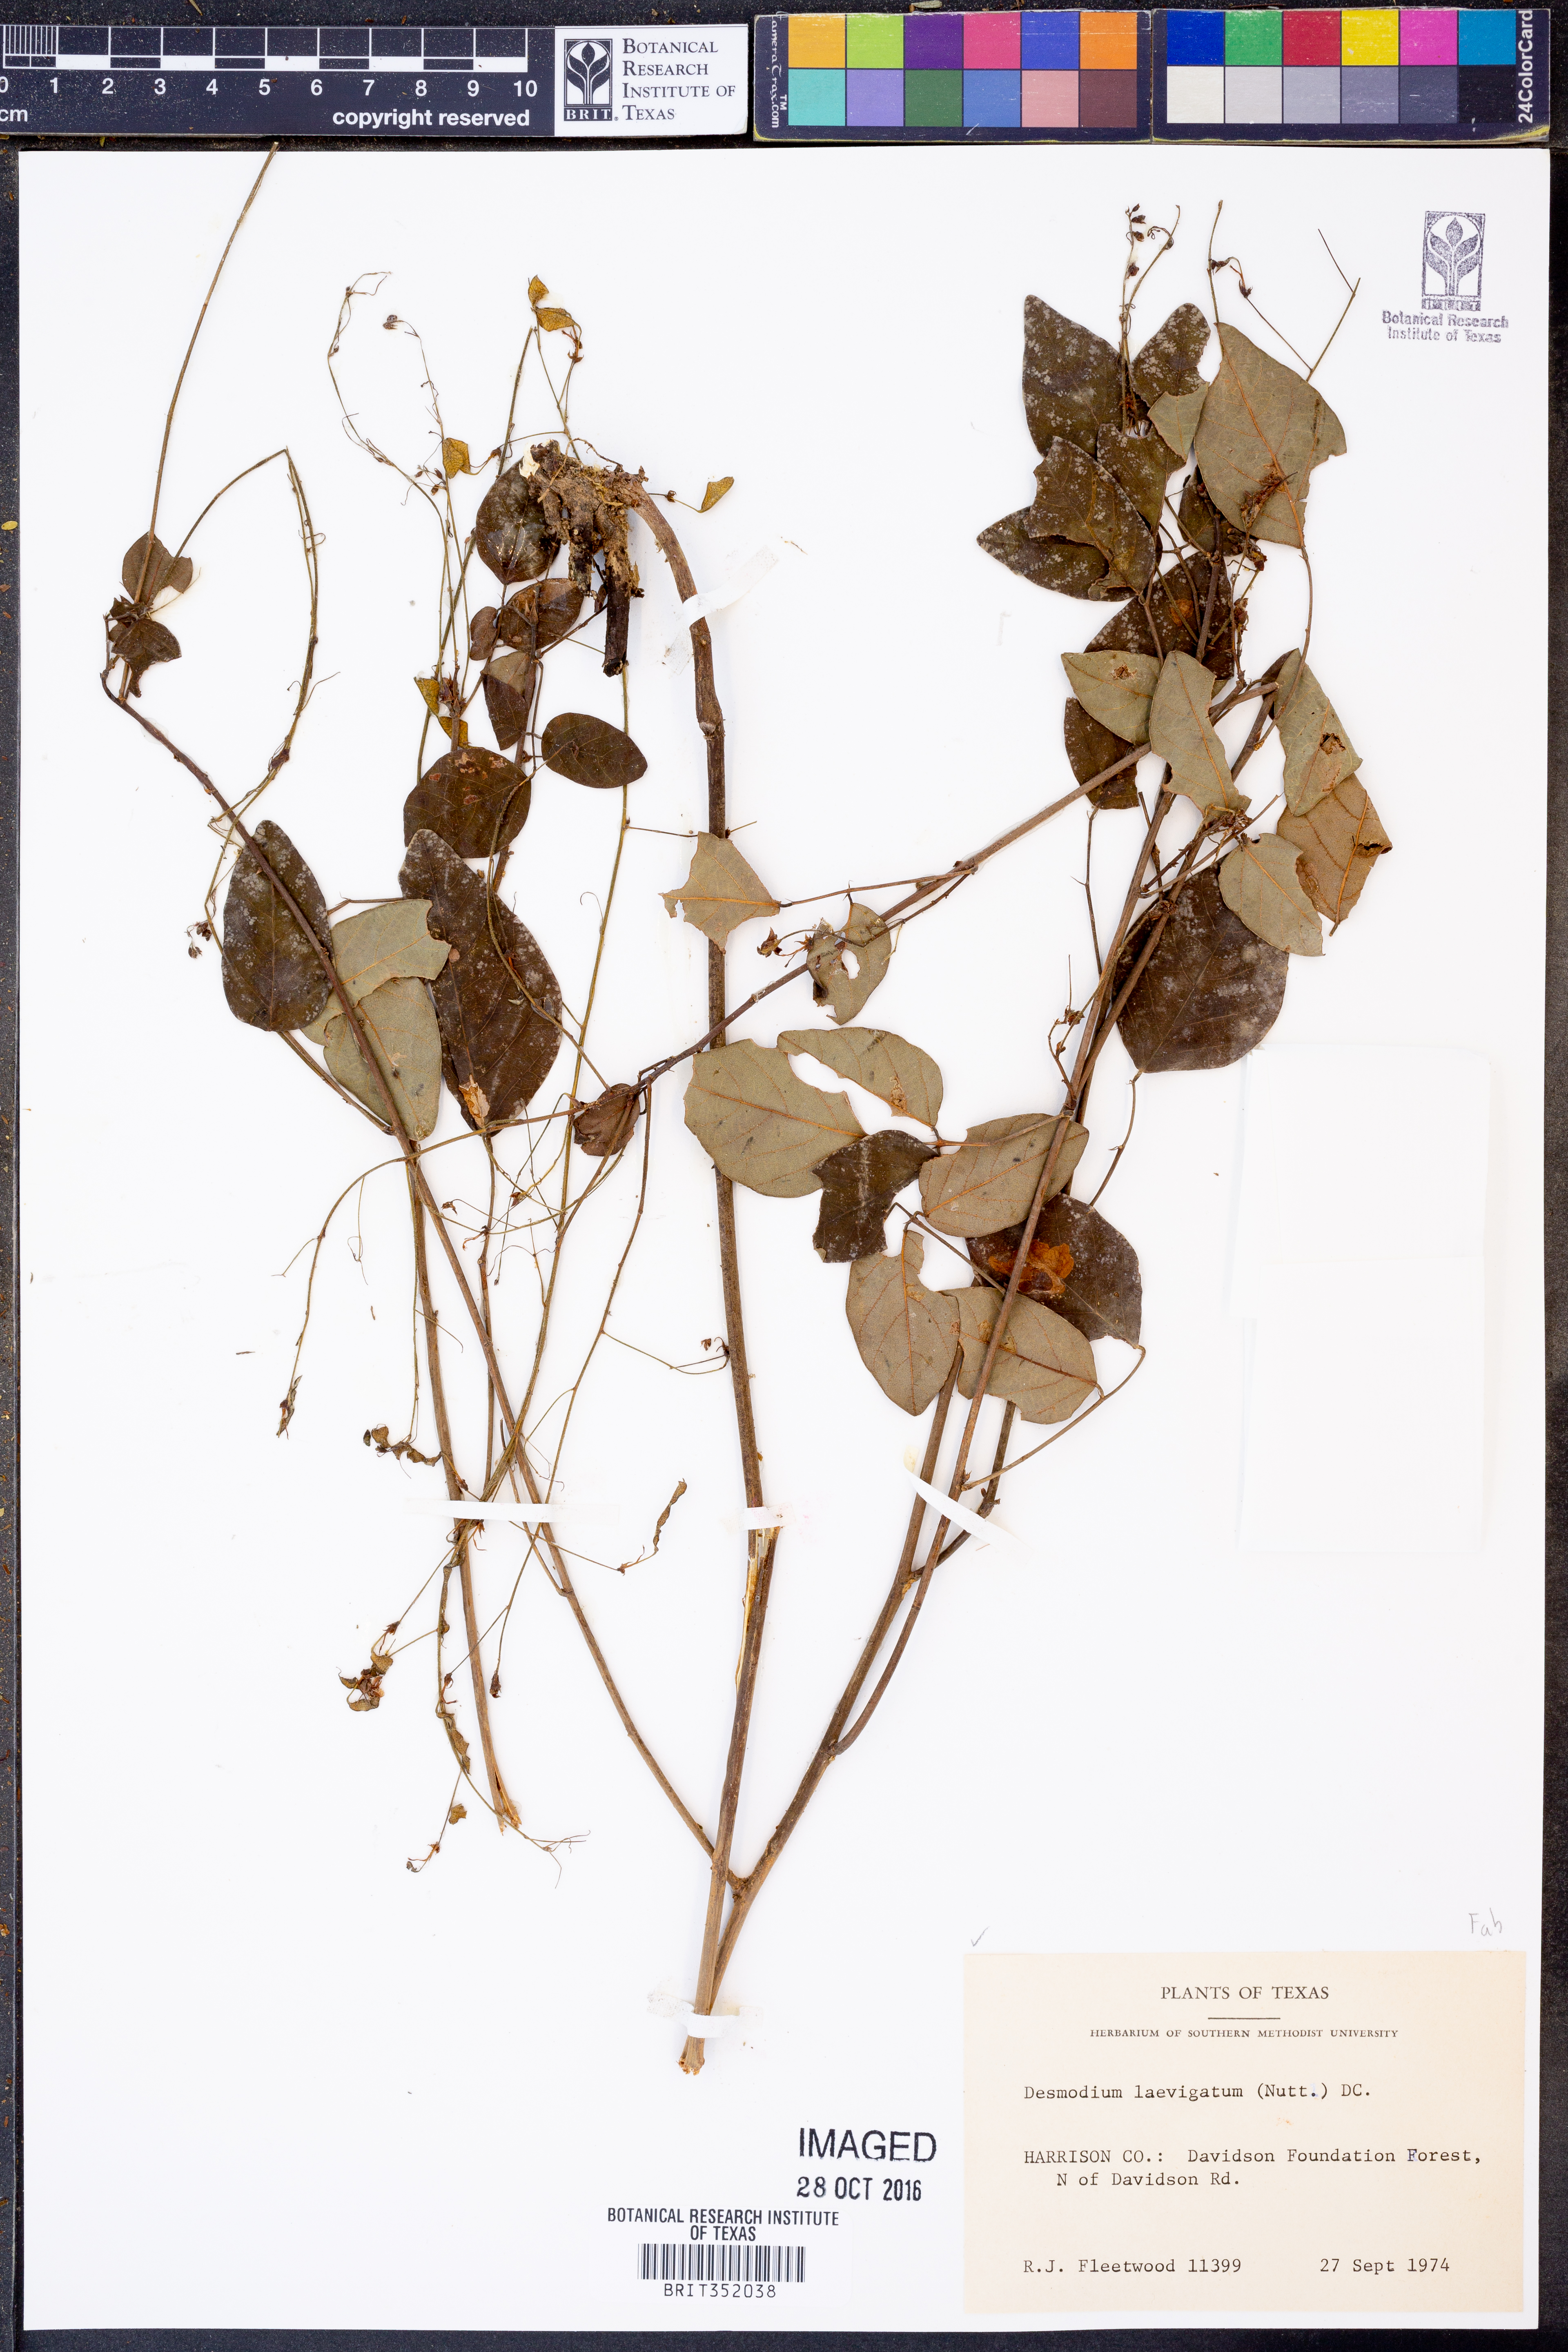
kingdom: Plantae
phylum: Tracheophyta
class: Magnoliopsida
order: Fabales
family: Fabaceae
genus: Desmodium
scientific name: Desmodium laevigatum
